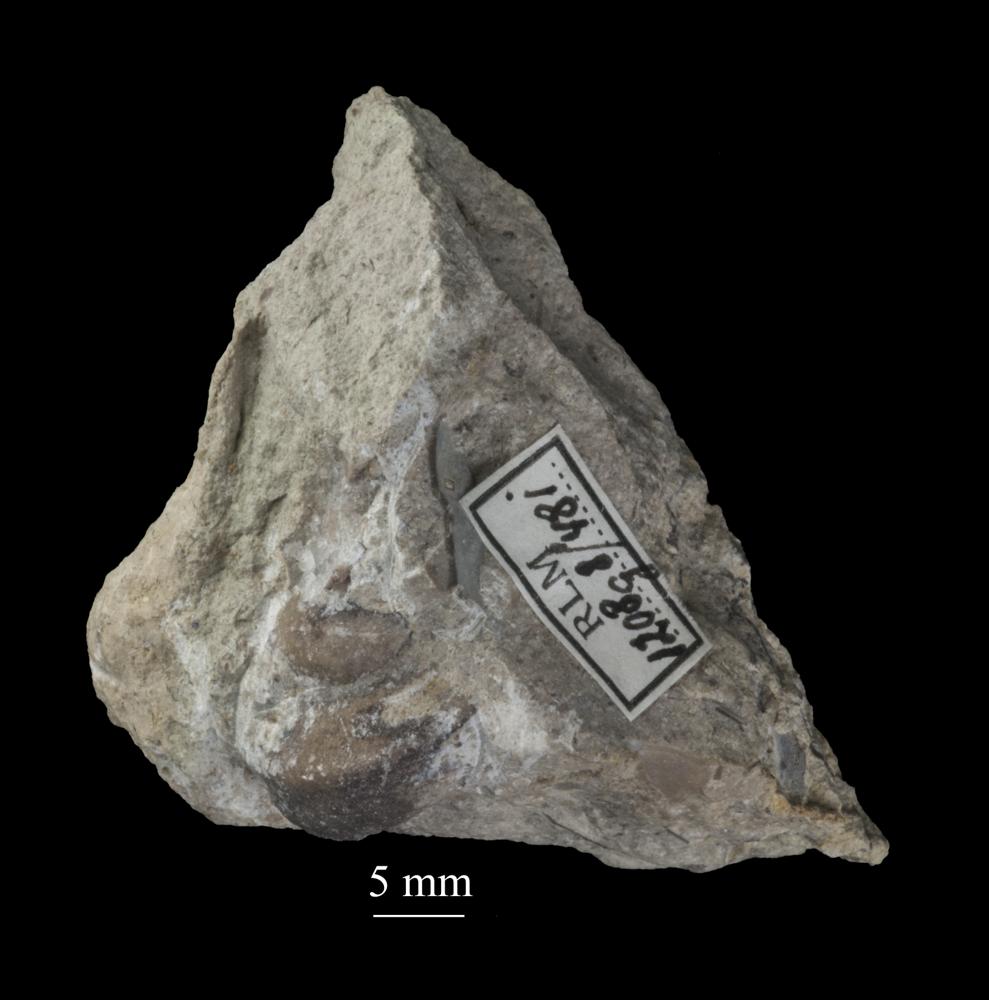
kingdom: Animalia
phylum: Mollusca
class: Gastropoda
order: Pleurotomariida
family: Phymatopleuridae
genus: Worthenia
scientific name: Worthenia
